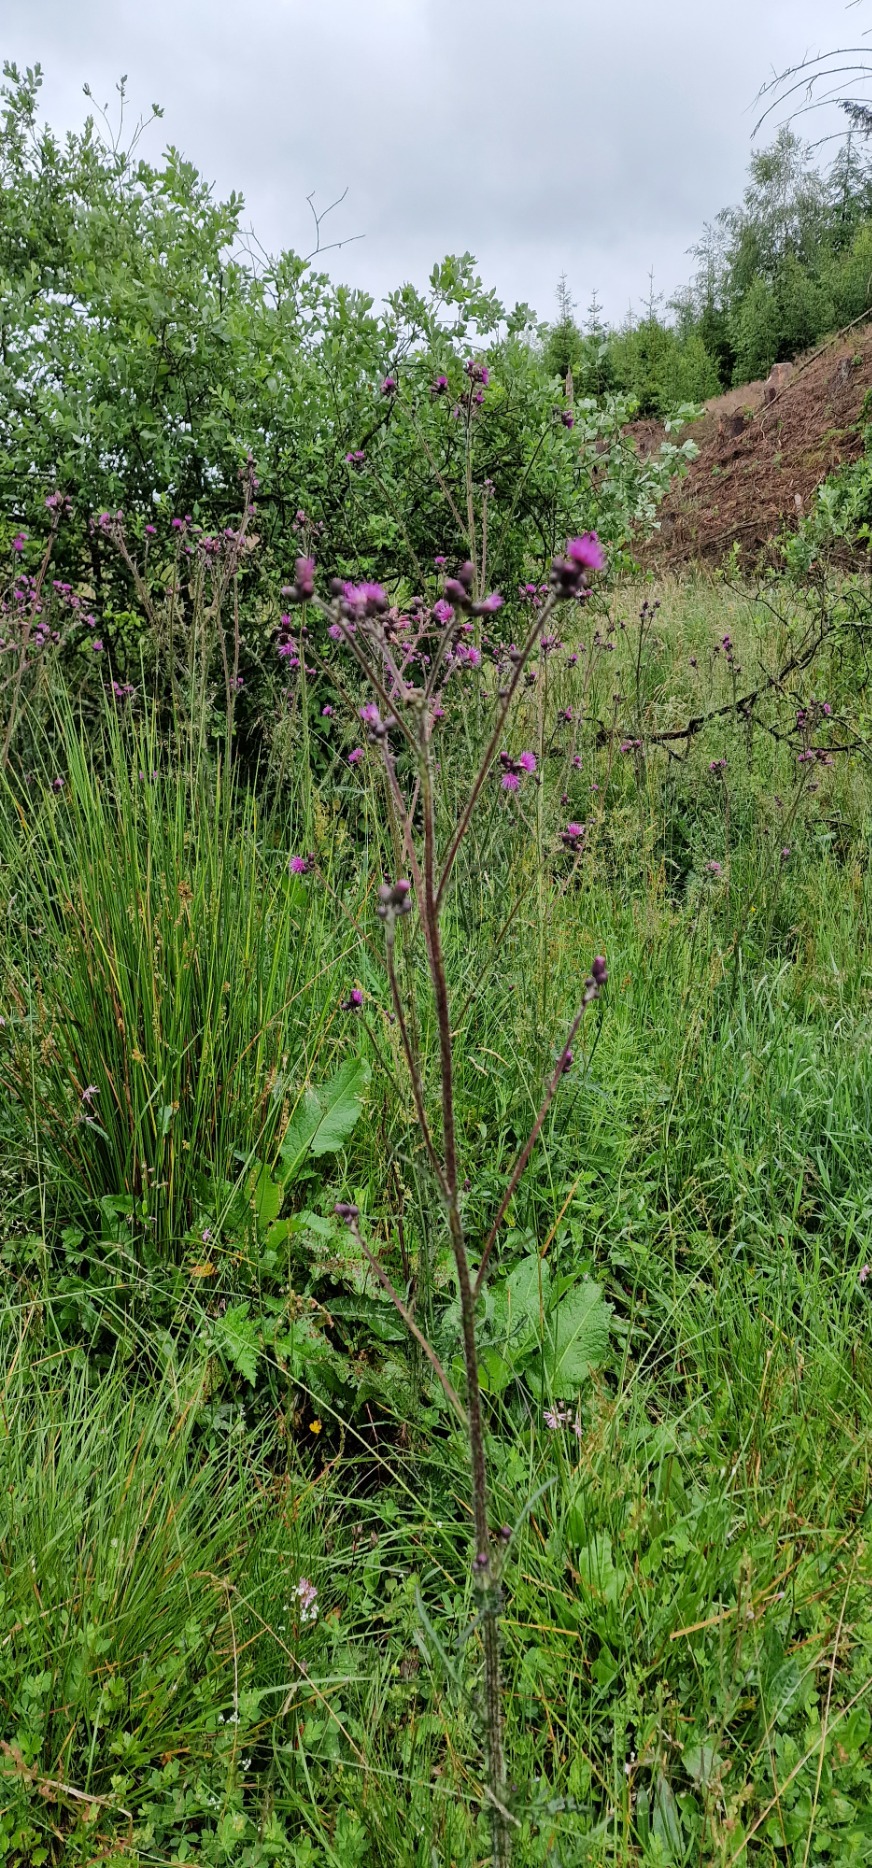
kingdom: Plantae
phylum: Tracheophyta
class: Magnoliopsida
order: Asterales
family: Asteraceae
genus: Cirsium
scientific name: Cirsium palustre
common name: Kær-tidsel
